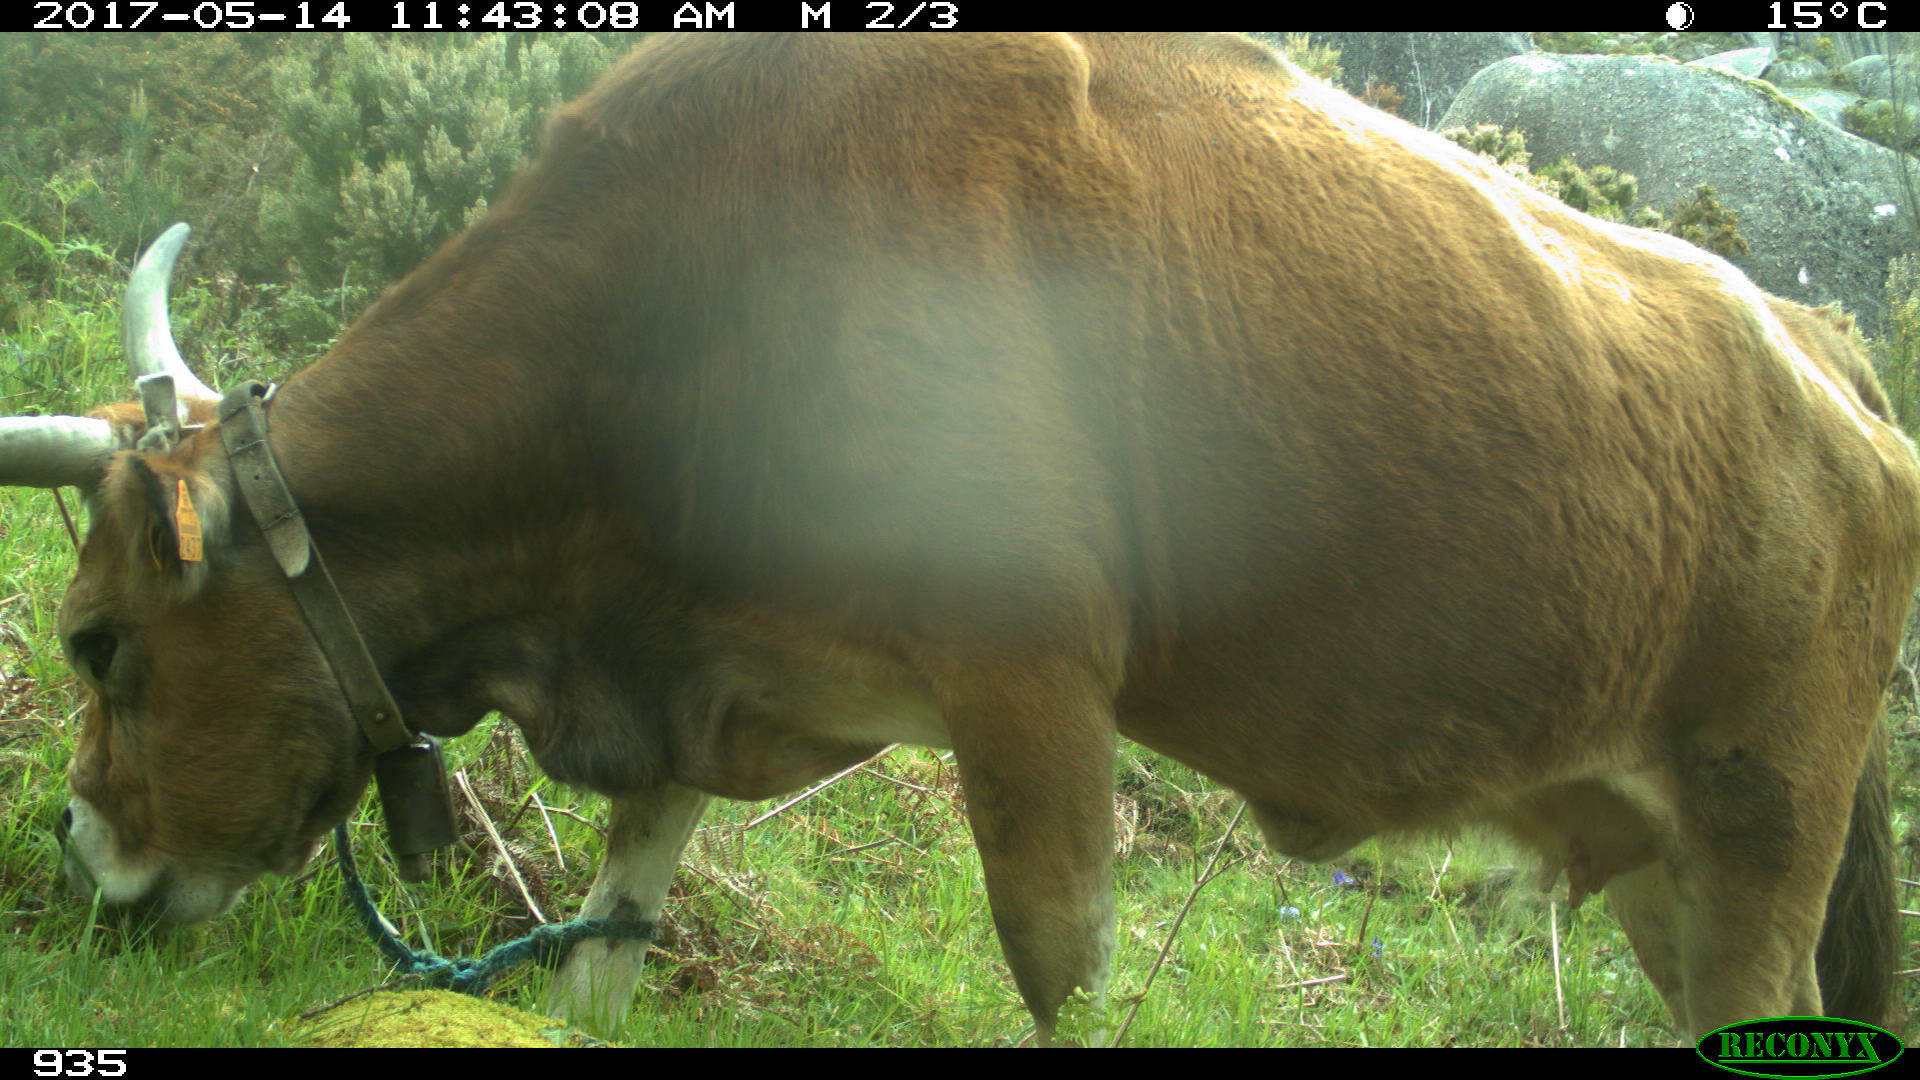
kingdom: Animalia
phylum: Chordata
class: Mammalia
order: Artiodactyla
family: Bovidae
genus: Bos
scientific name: Bos taurus
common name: Domesticated cattle
